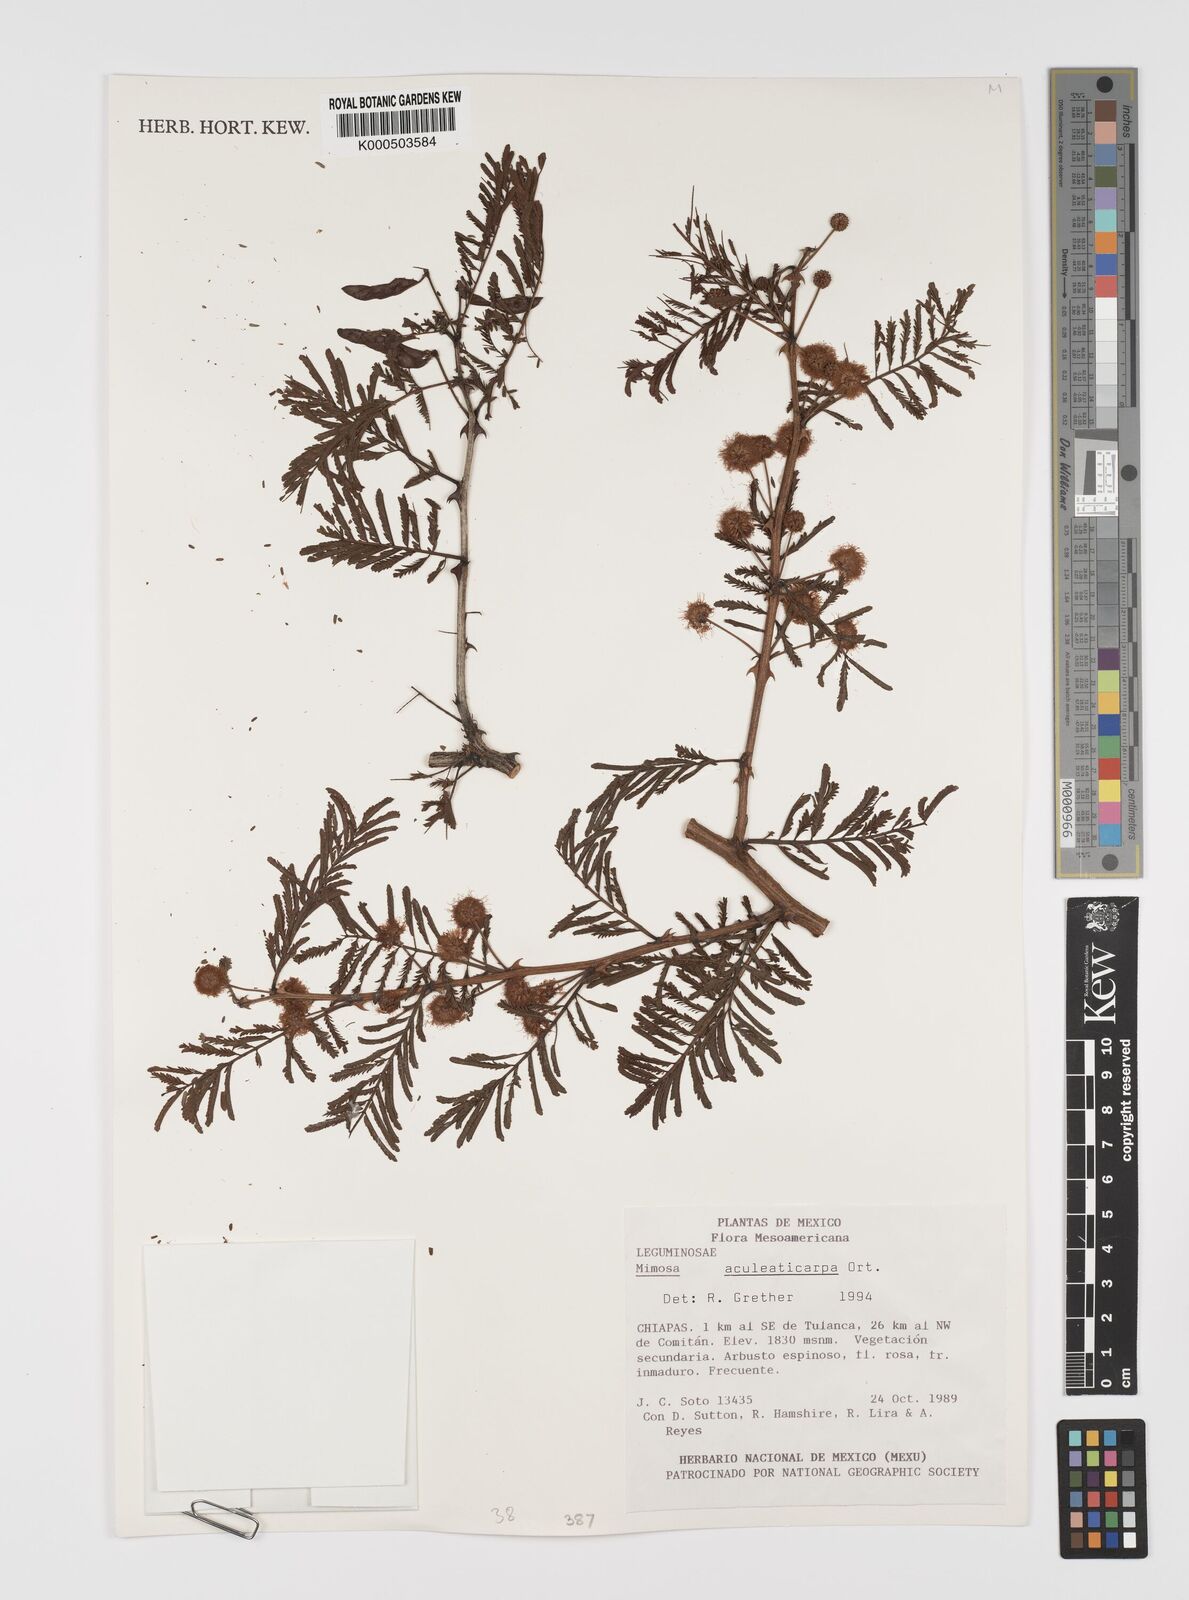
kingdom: Plantae
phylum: Tracheophyta
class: Magnoliopsida
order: Fabales
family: Fabaceae
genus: Mimosa
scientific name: Mimosa aculeaticarpa
